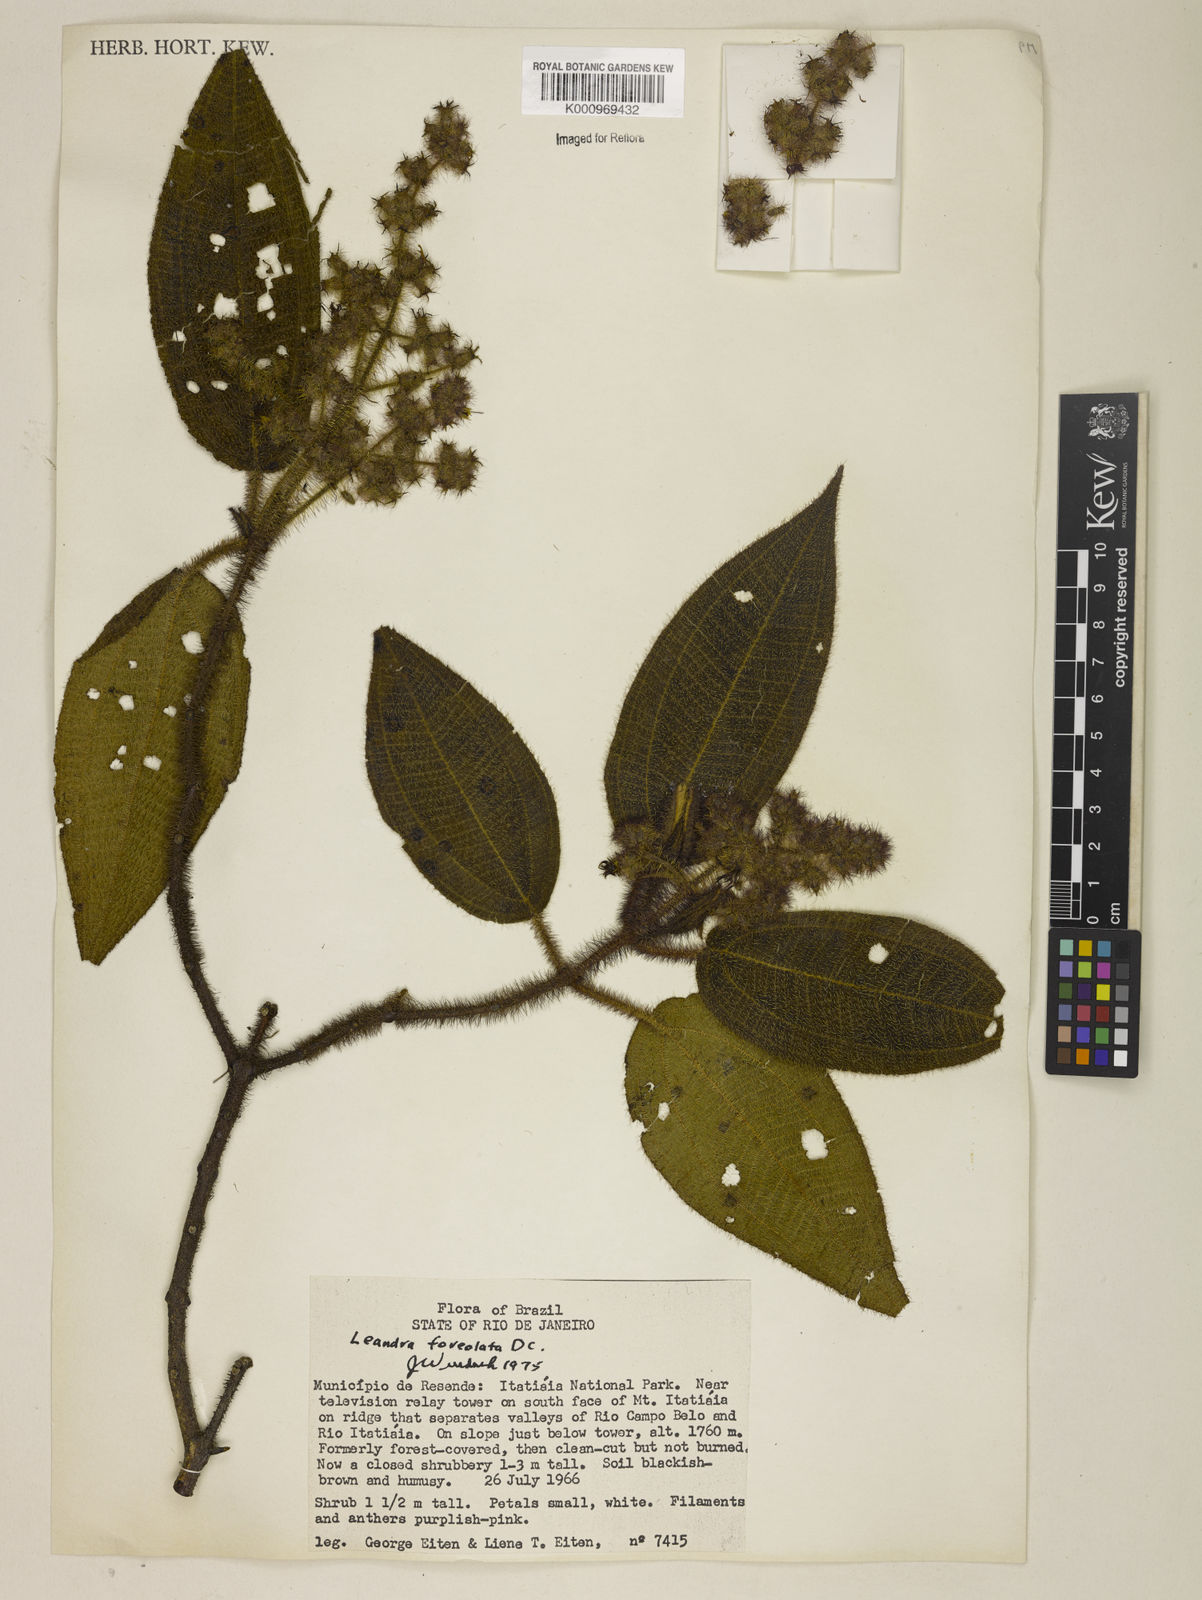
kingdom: Plantae
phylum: Tracheophyta
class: Magnoliopsida
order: Myrtales
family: Melastomataceae
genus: Miconia
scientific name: Miconia leafoveolata
